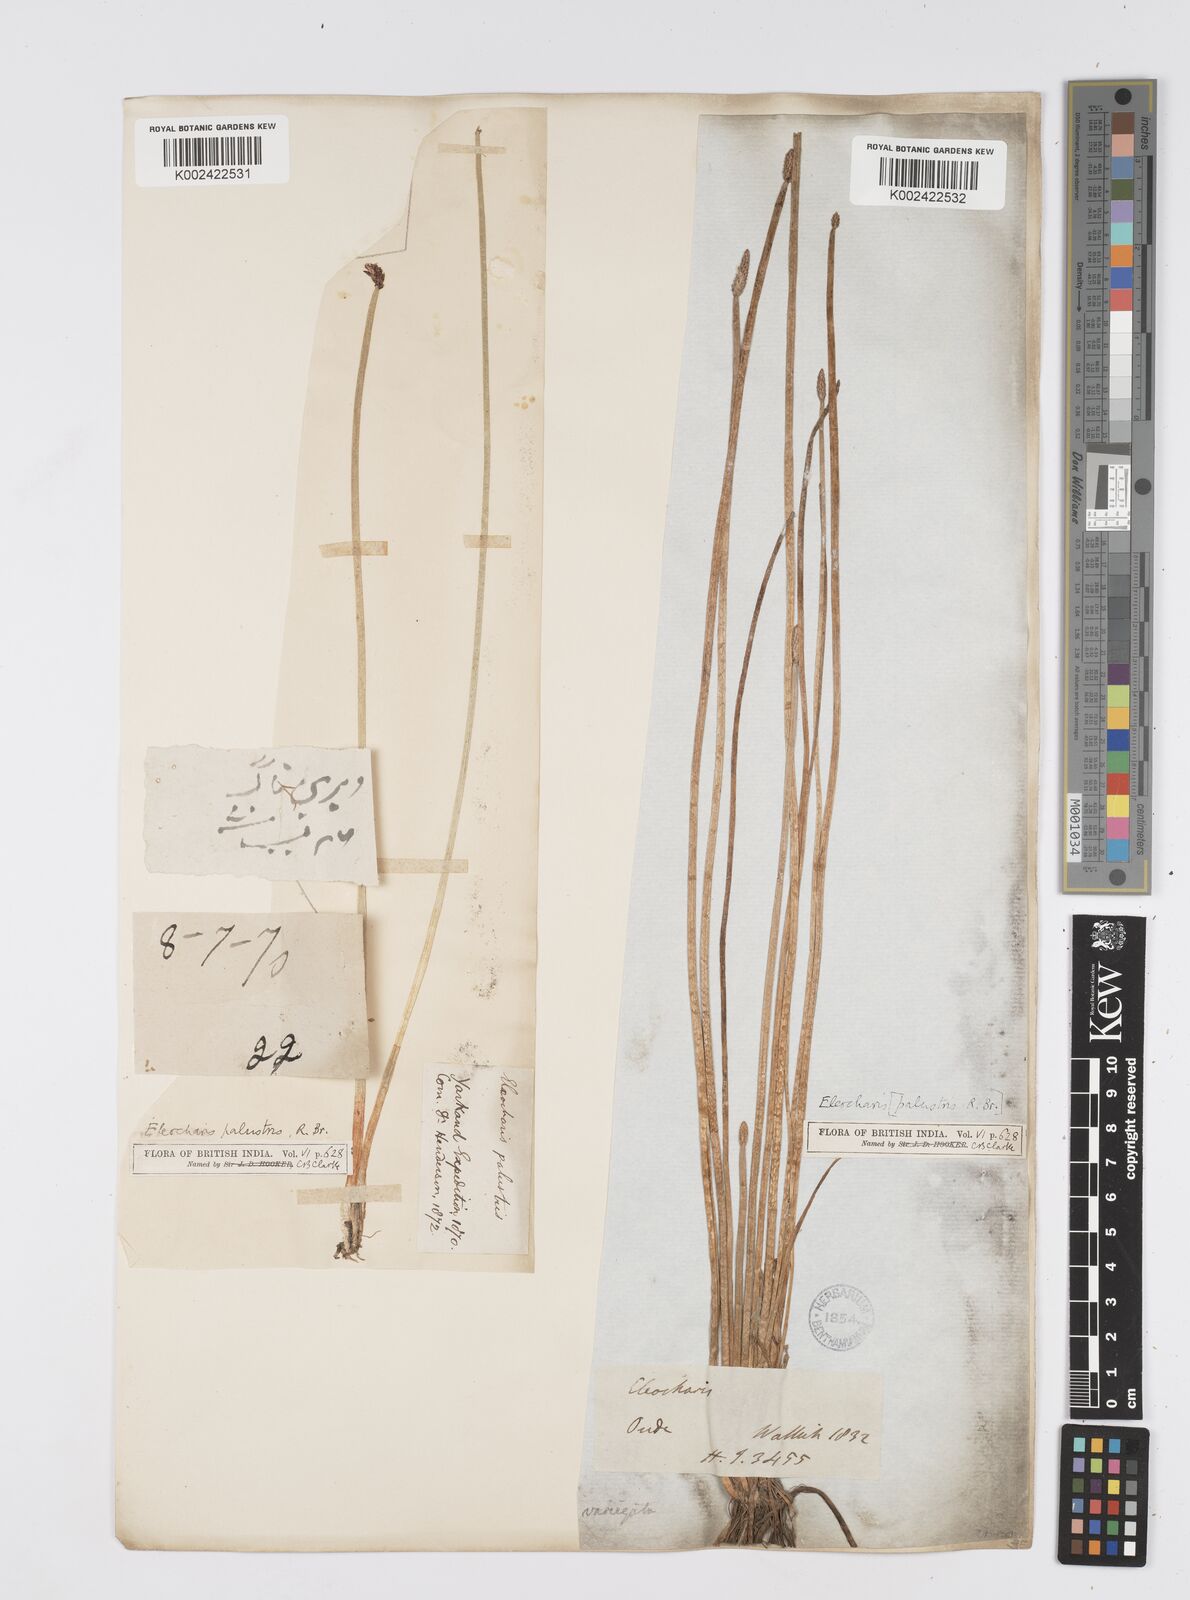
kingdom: Plantae
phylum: Tracheophyta
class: Liliopsida
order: Poales
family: Cyperaceae
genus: Eleocharis
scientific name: Eleocharis palustris
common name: Common spike-rush
